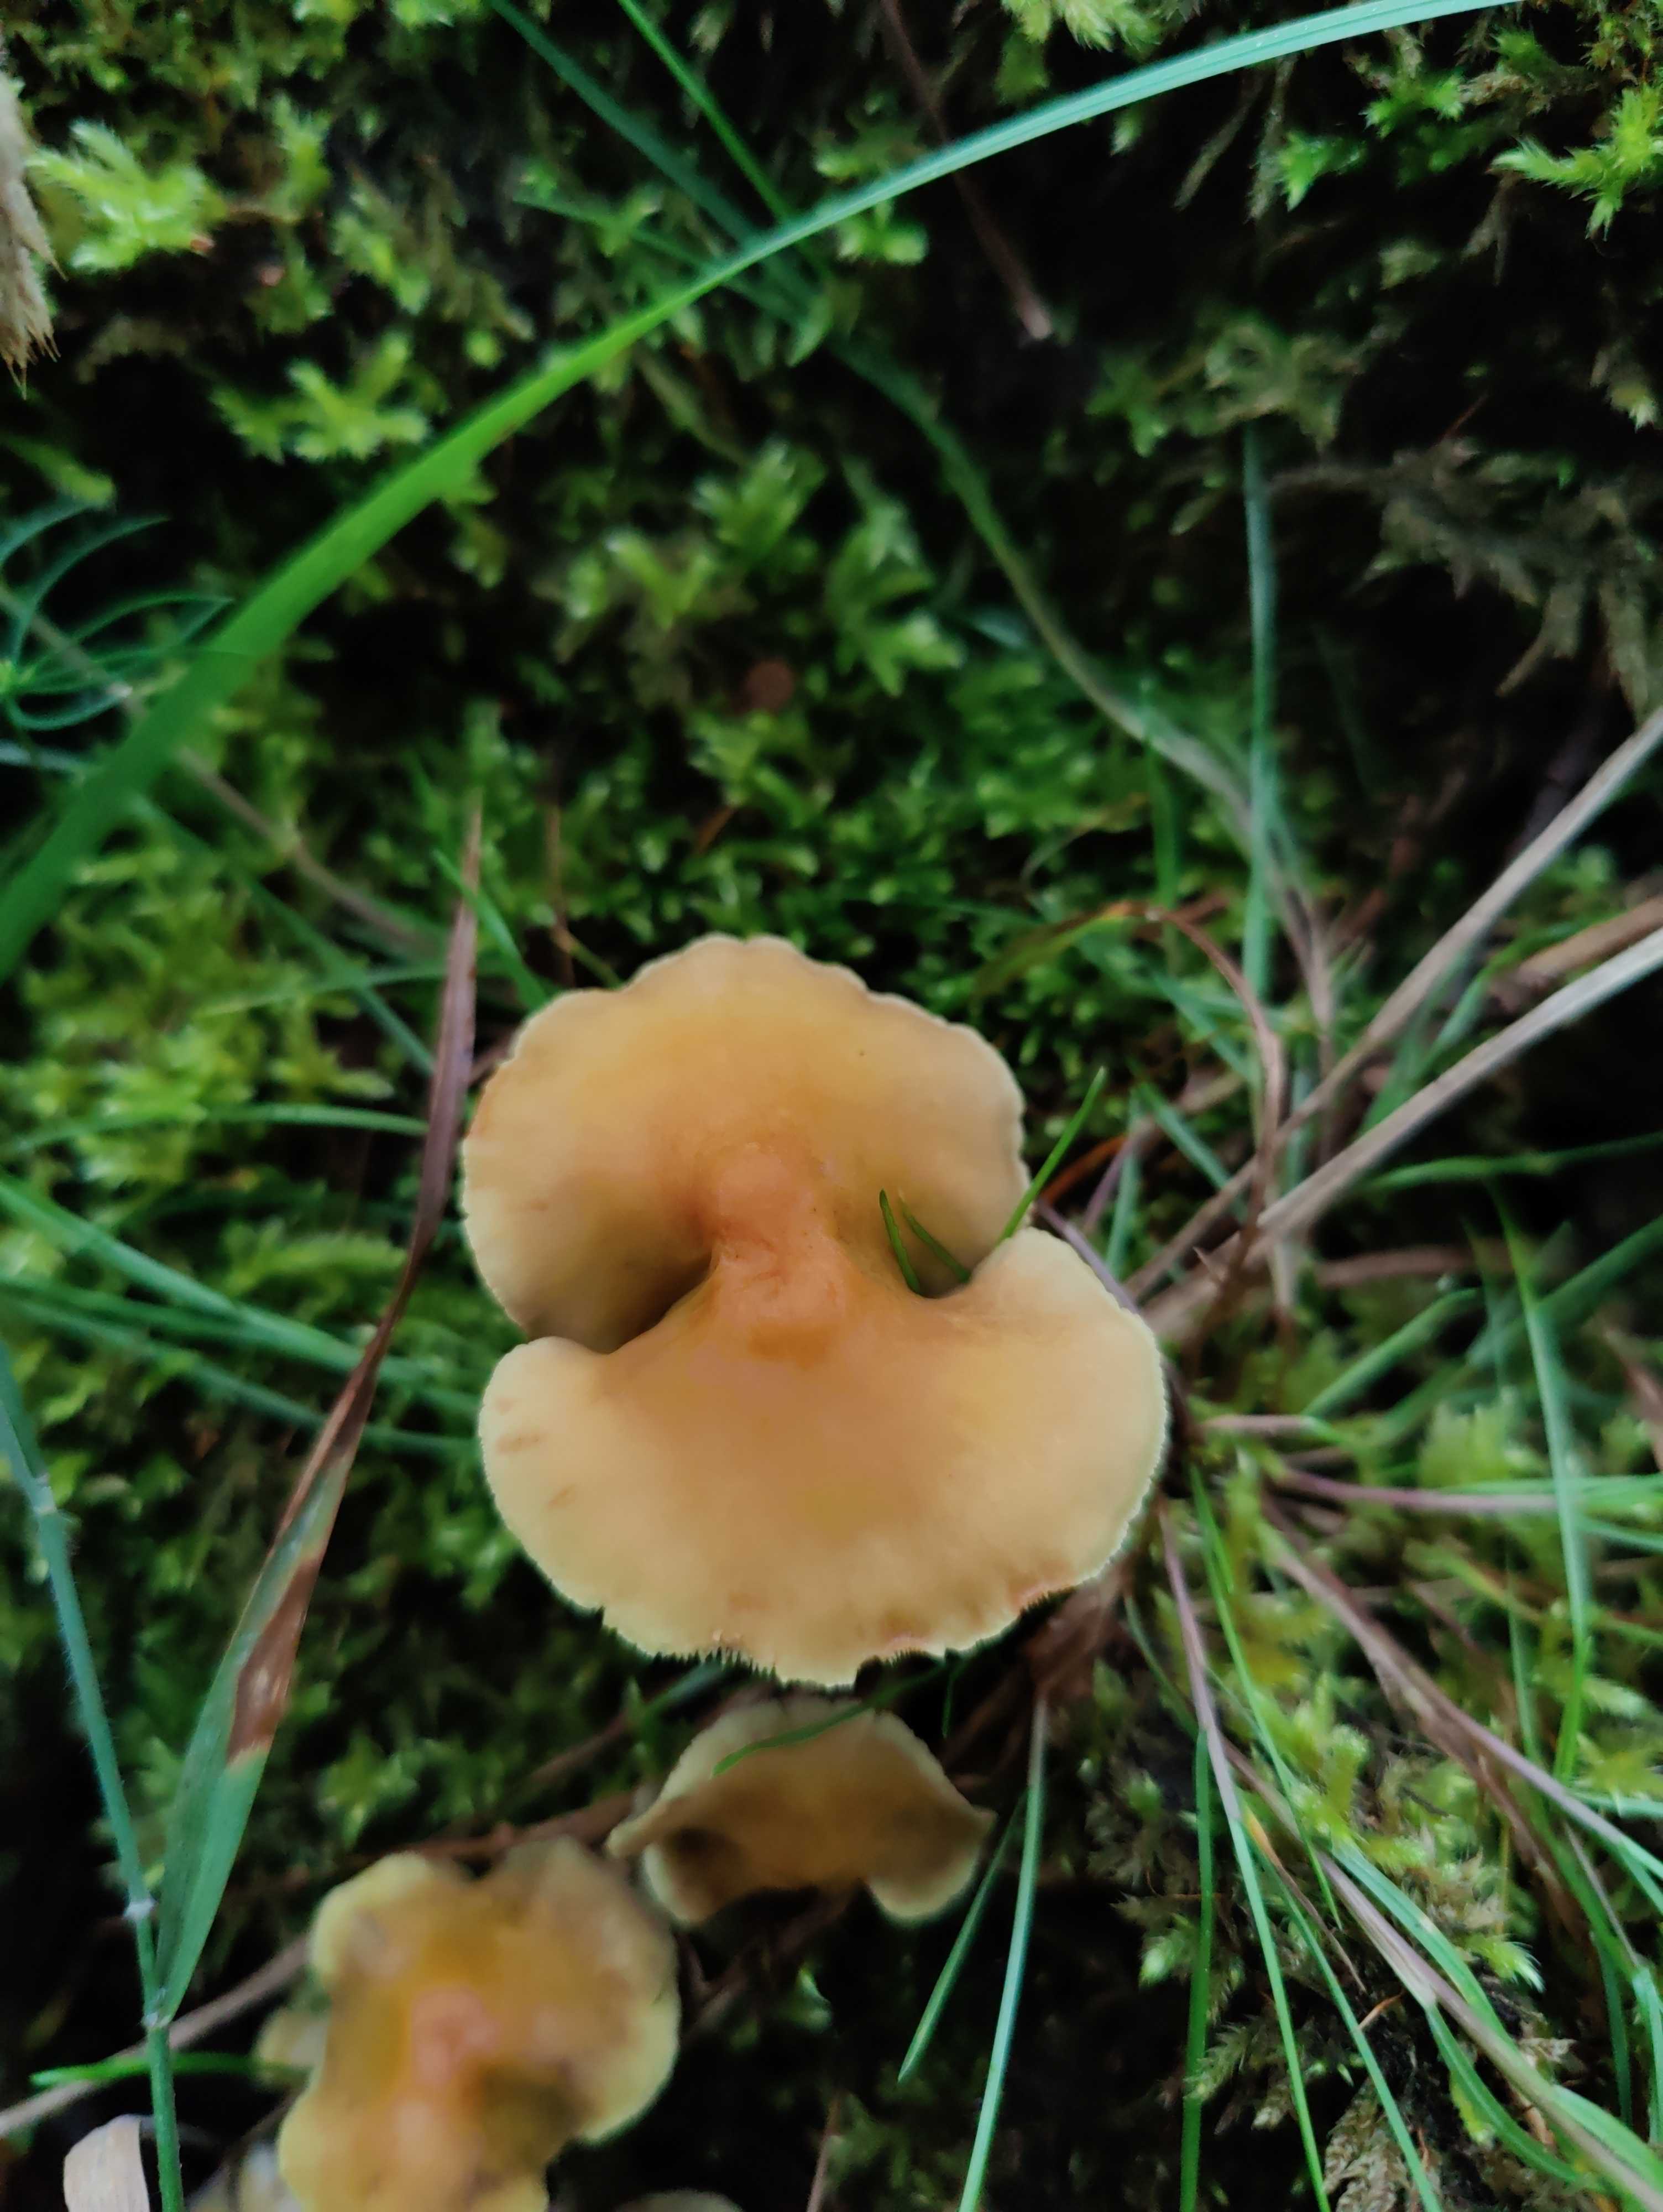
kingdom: Fungi
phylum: Basidiomycota
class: Agaricomycetes
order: Agaricales
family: Strophariaceae
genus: Hypholoma
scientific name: Hypholoma fasciculare
